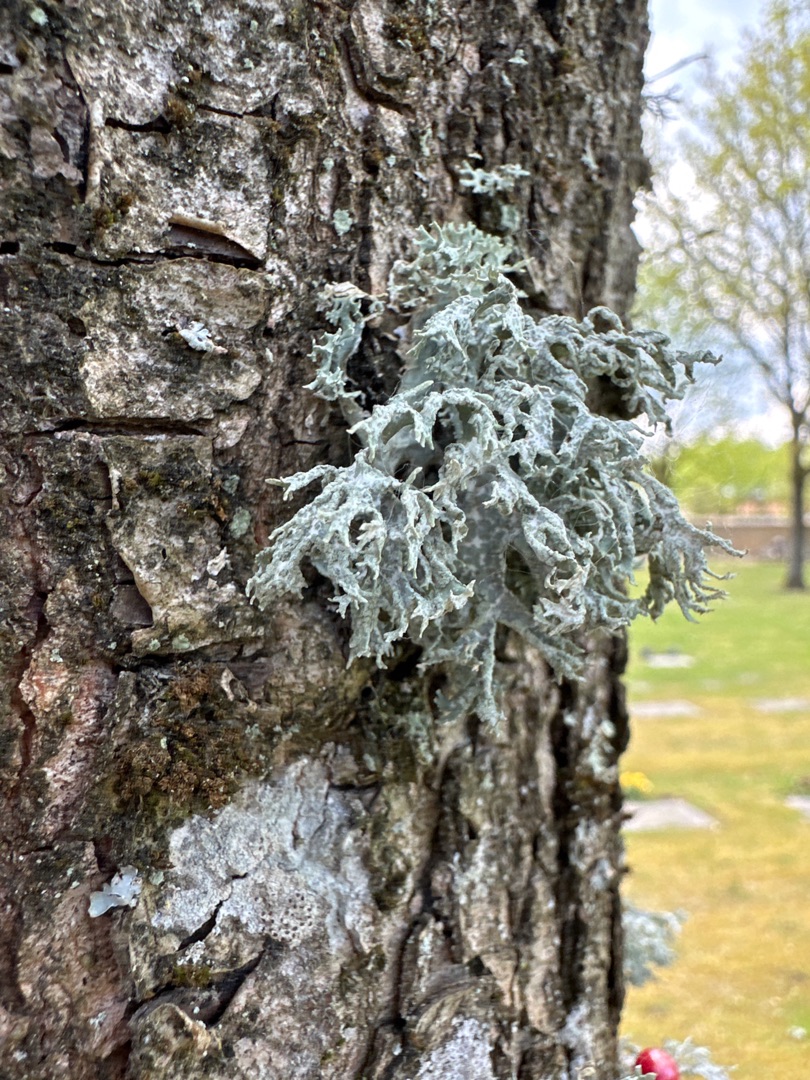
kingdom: Fungi
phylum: Ascomycota
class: Lecanoromycetes
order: Lecanorales
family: Parmeliaceae
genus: Evernia
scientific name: Evernia prunastri
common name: Almindelig slåenlav
